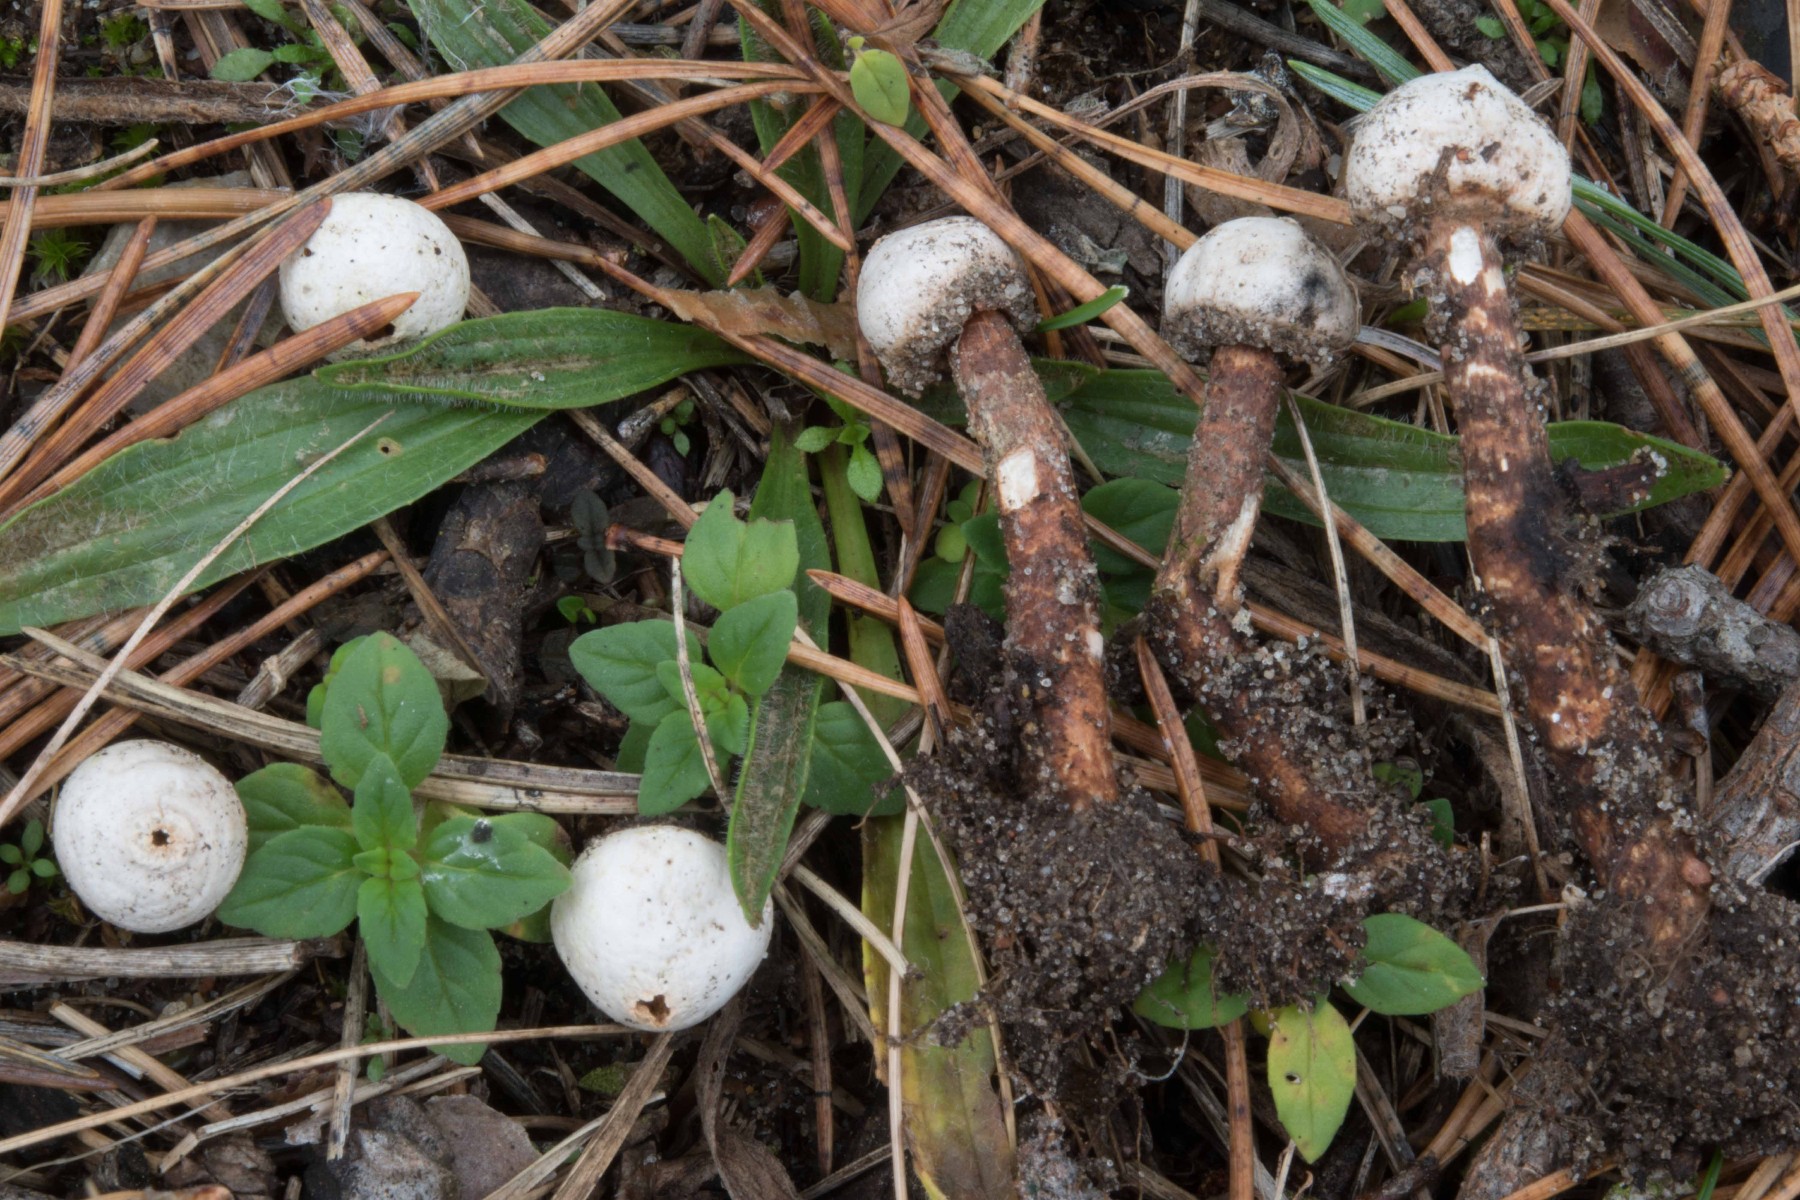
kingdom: Fungi
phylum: Basidiomycota
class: Agaricomycetes
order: Agaricales
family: Agaricaceae
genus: Tulostoma
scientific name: Tulostoma fimbriatum
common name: frynset stilkbovist
